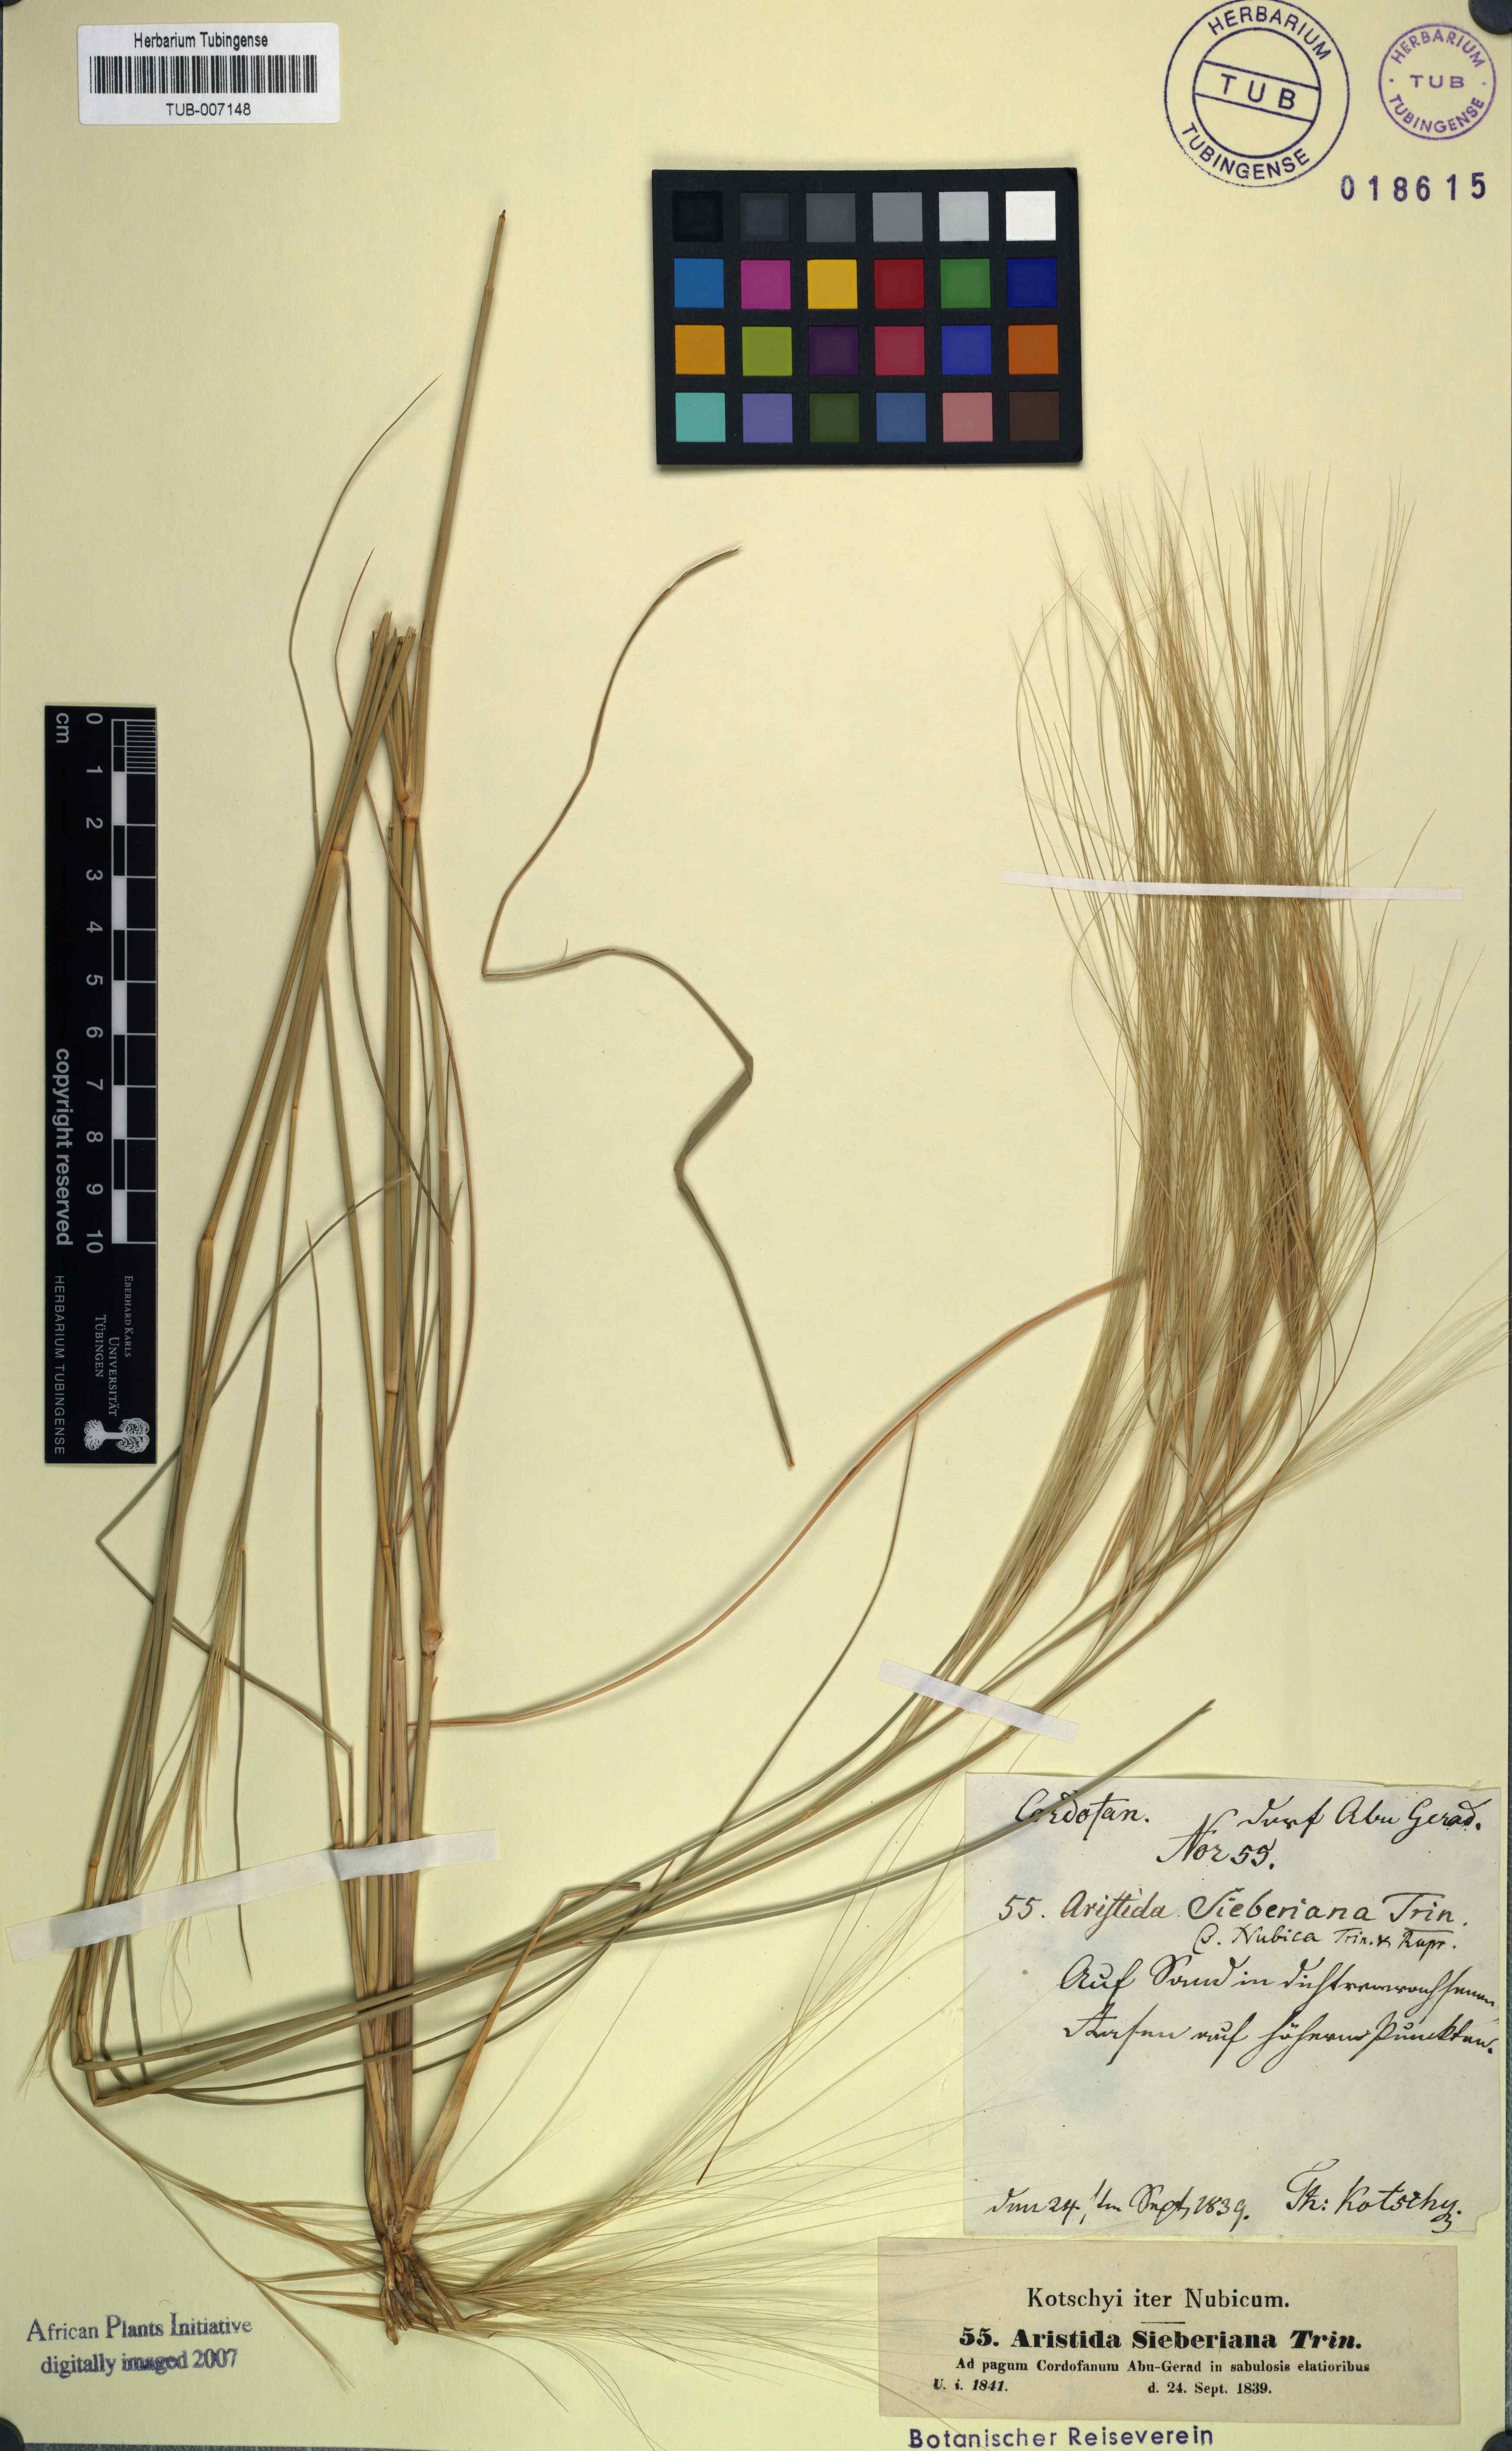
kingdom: Plantae
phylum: Tracheophyta
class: Liliopsida
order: Poales
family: Poaceae
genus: Aristida
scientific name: Aristida sieberiana
